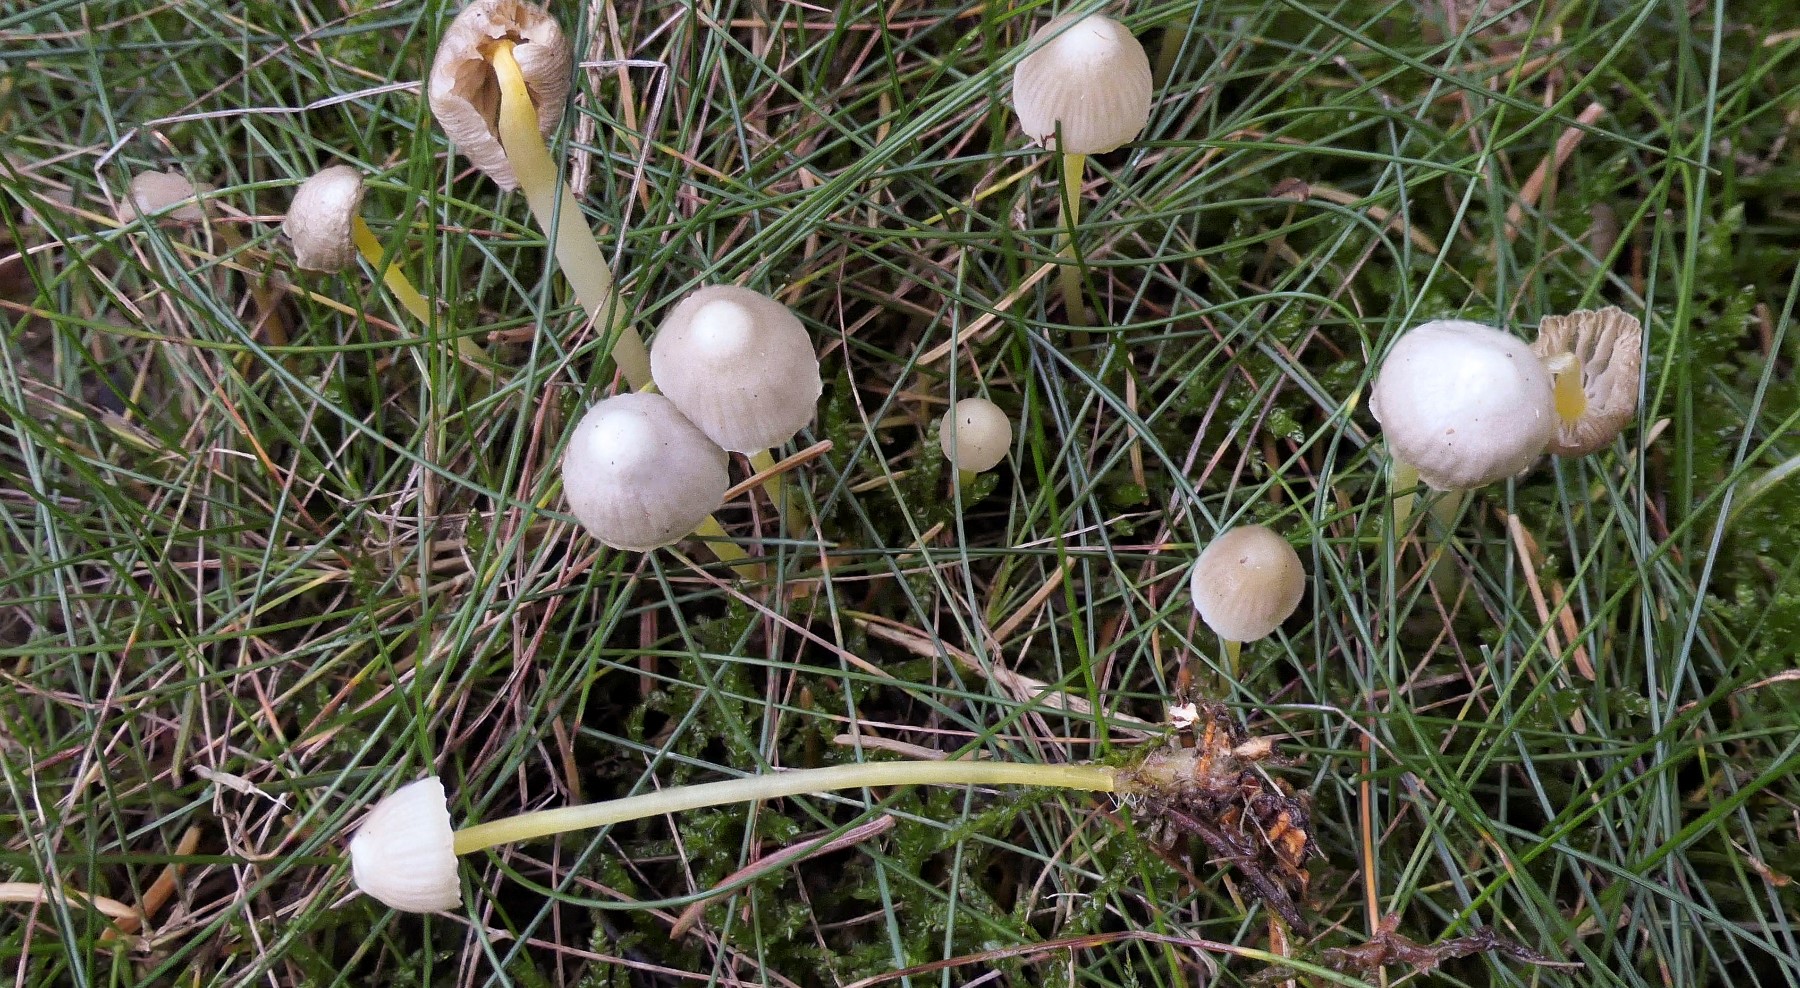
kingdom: Fungi
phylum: Basidiomycota
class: Agaricomycetes
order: Agaricales
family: Mycenaceae
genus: Mycena
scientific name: Mycena epipterygia
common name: gulstokket huesvamp
